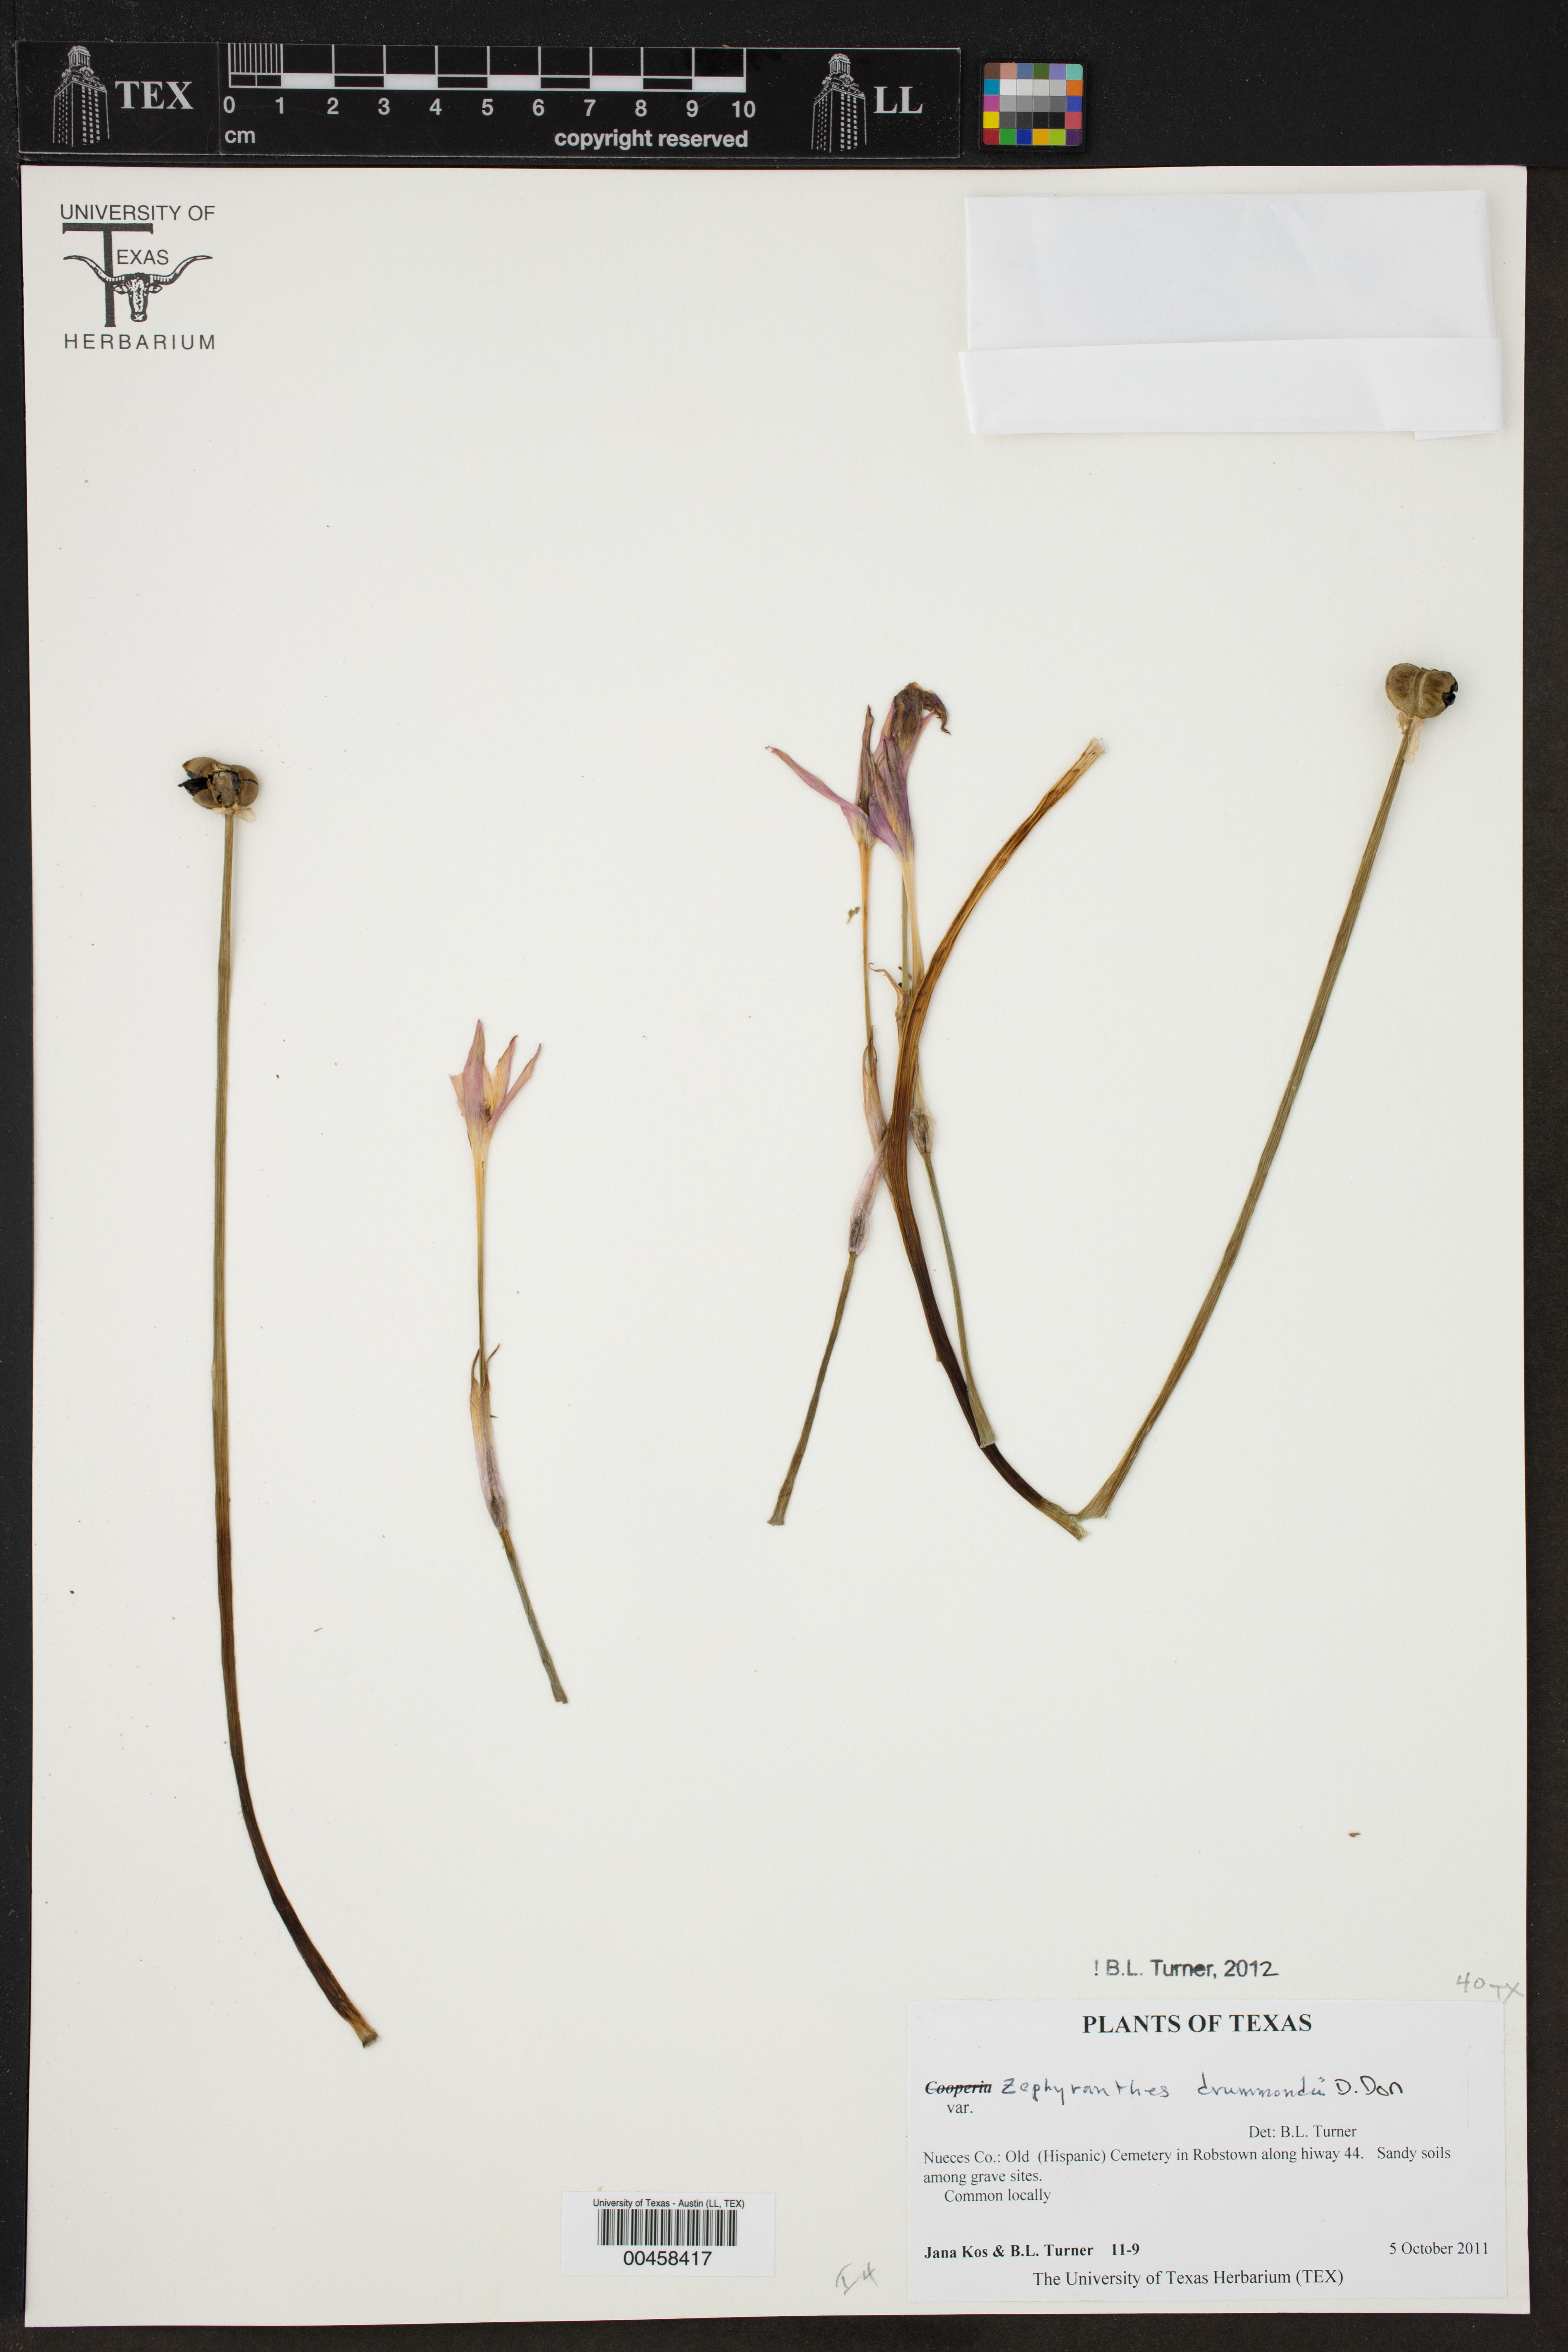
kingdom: Plantae
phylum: Tracheophyta
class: Liliopsida
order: Asparagales
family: Amaryllidaceae
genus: Zephyranthes
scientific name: Zephyranthes drummondii
